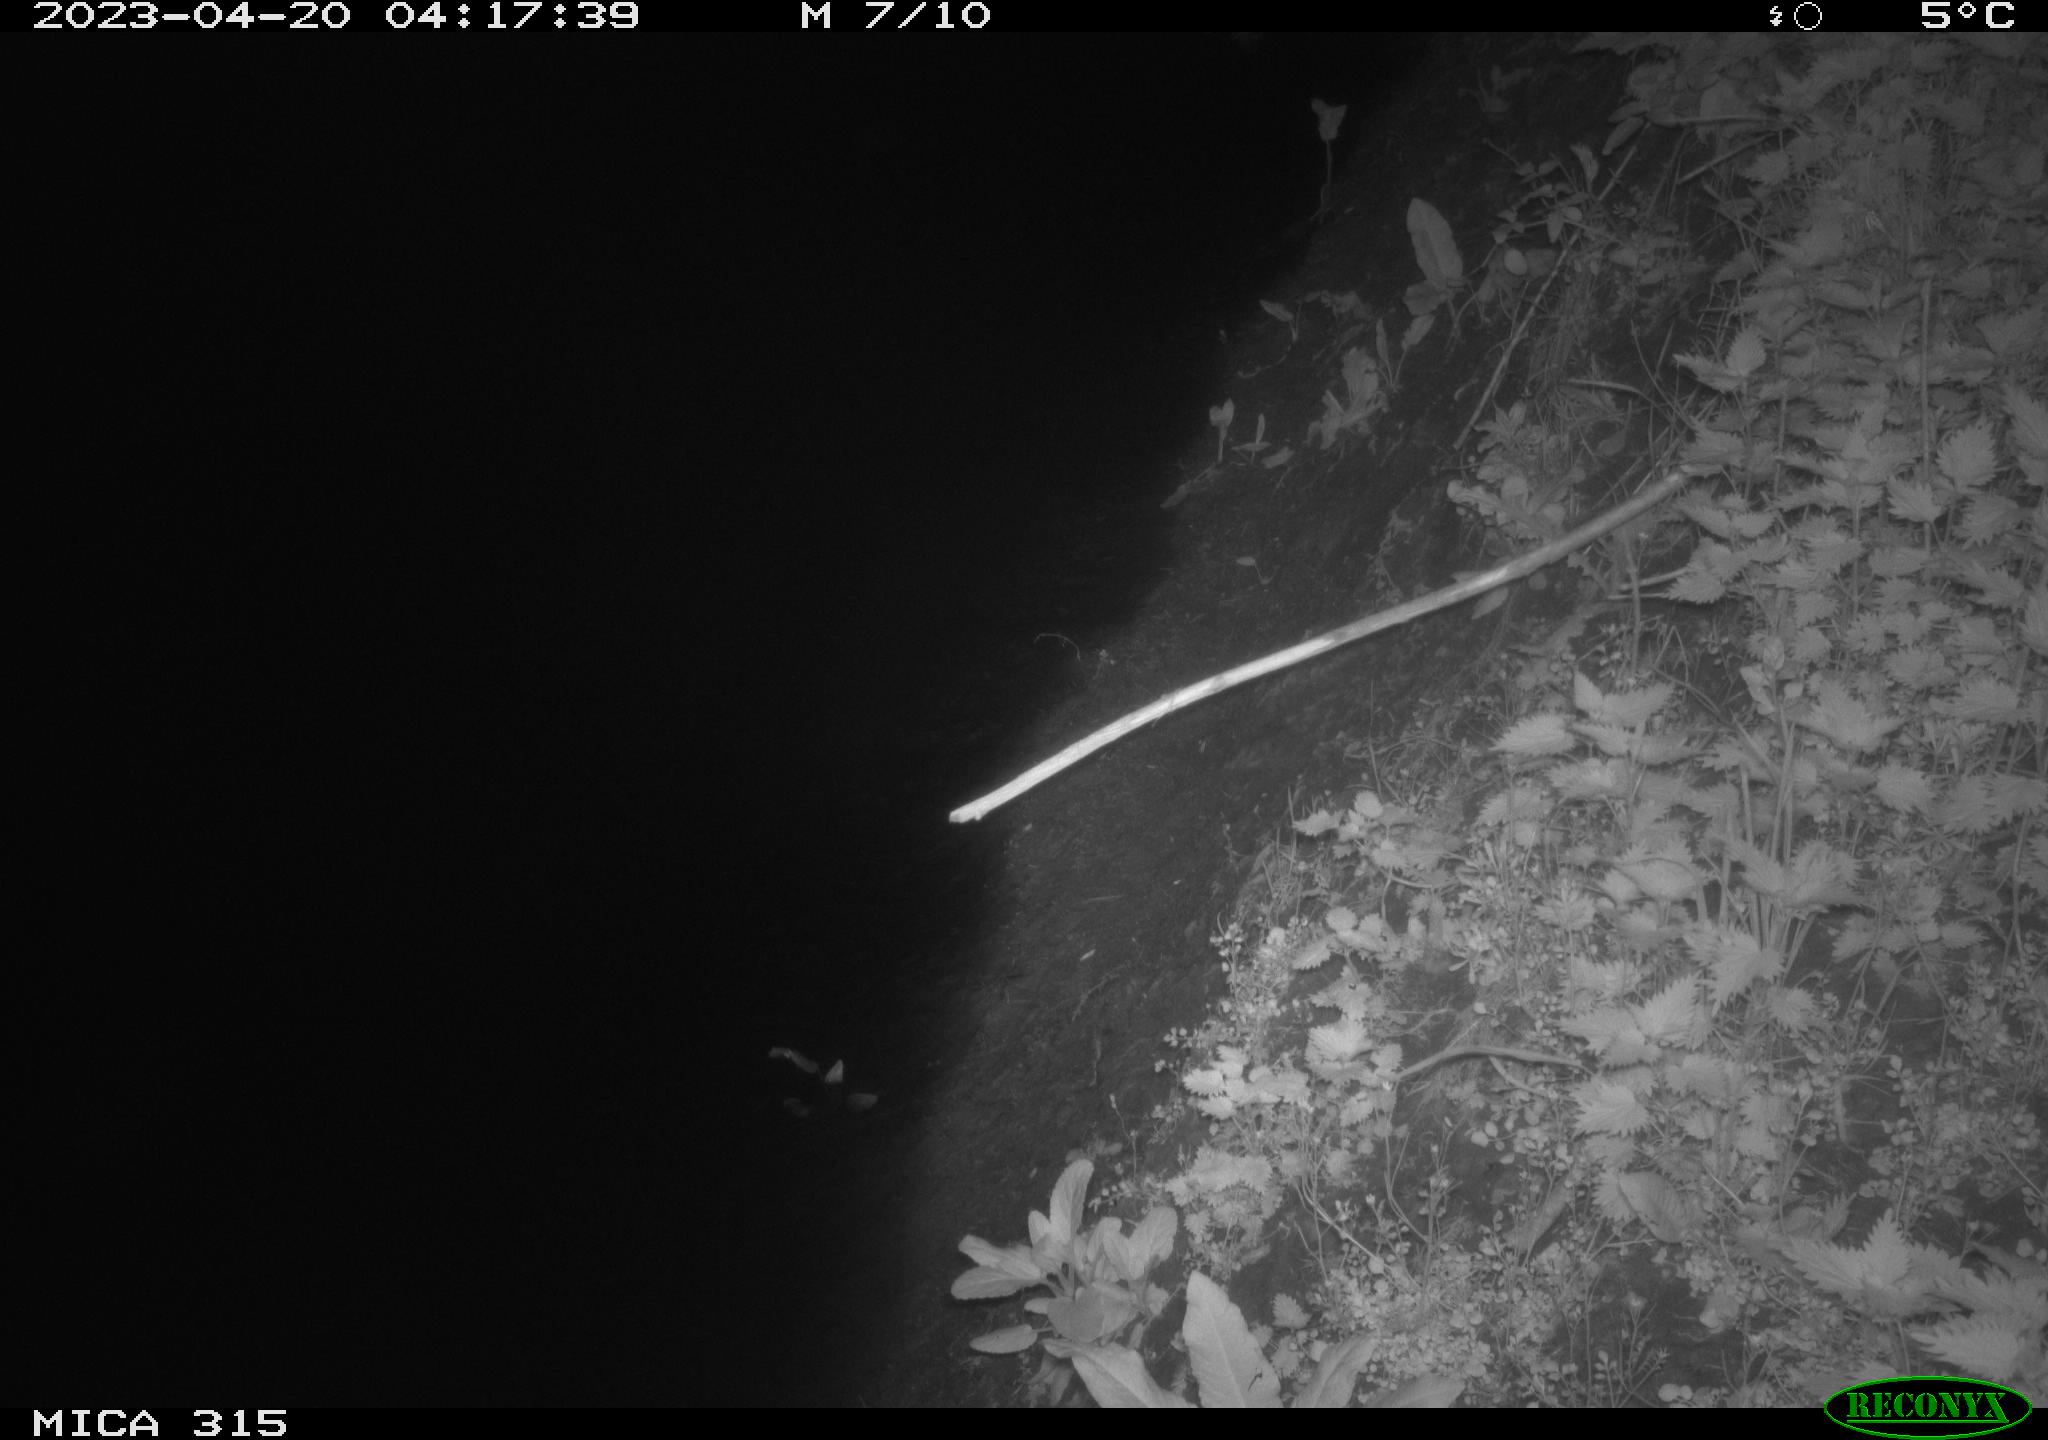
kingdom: Animalia
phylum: Chordata
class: Aves
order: Anseriformes
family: Anatidae
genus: Anas
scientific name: Anas
